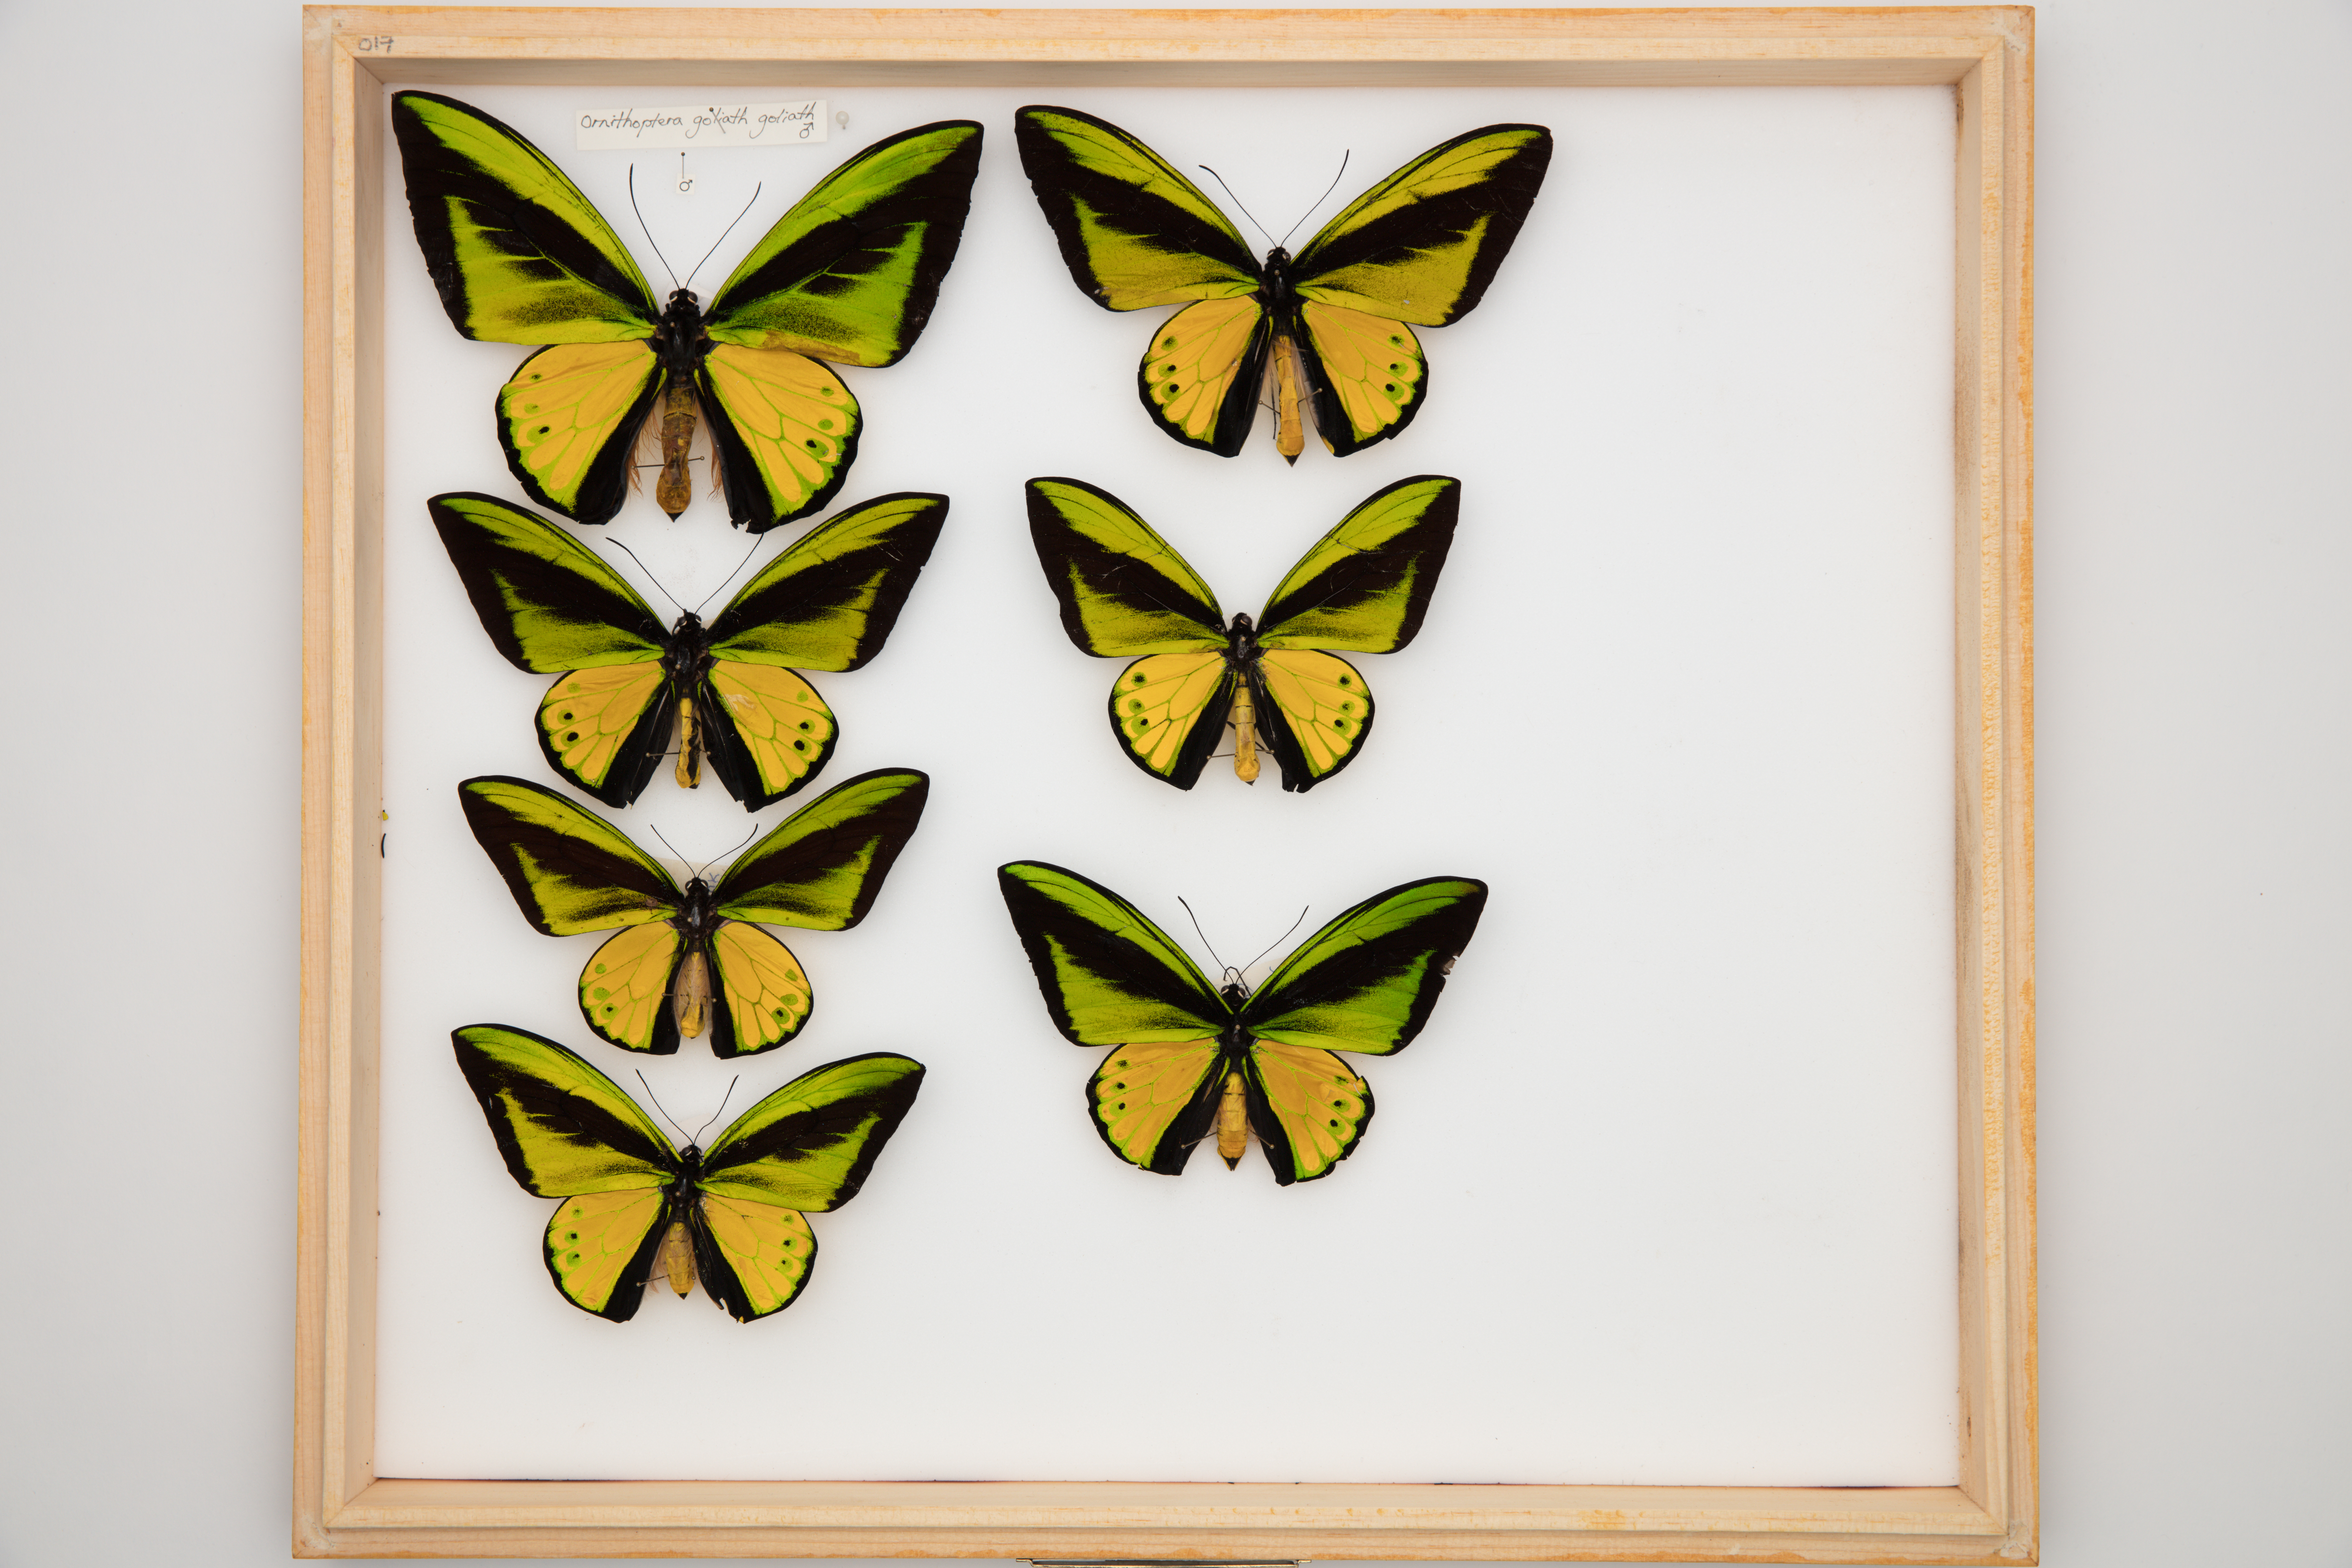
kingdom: Animalia
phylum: Arthropoda
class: Insecta
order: Lepidoptera
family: Papilionidae
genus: Ornithoptera
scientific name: Ornithoptera goliath
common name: Goliath birdwing
